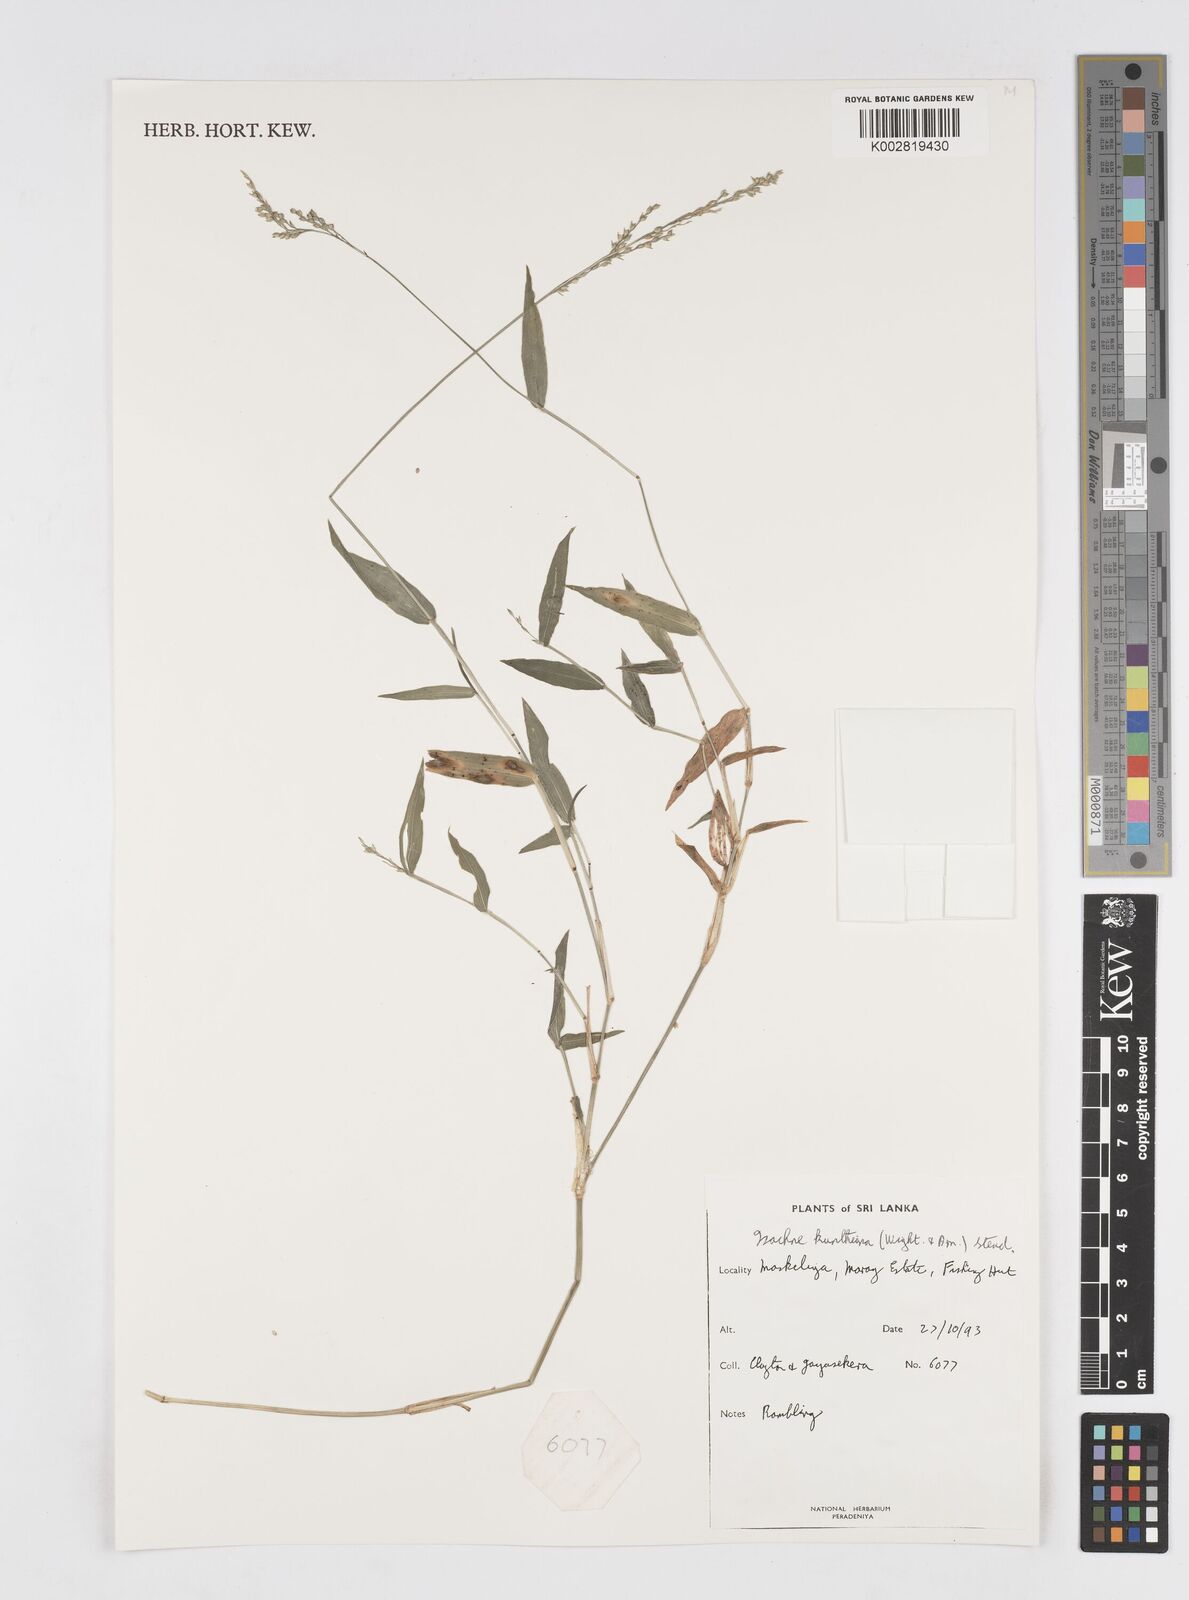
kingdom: Plantae
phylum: Tracheophyta
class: Liliopsida
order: Poales
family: Poaceae
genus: Isachne
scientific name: Isachne kunthiana
